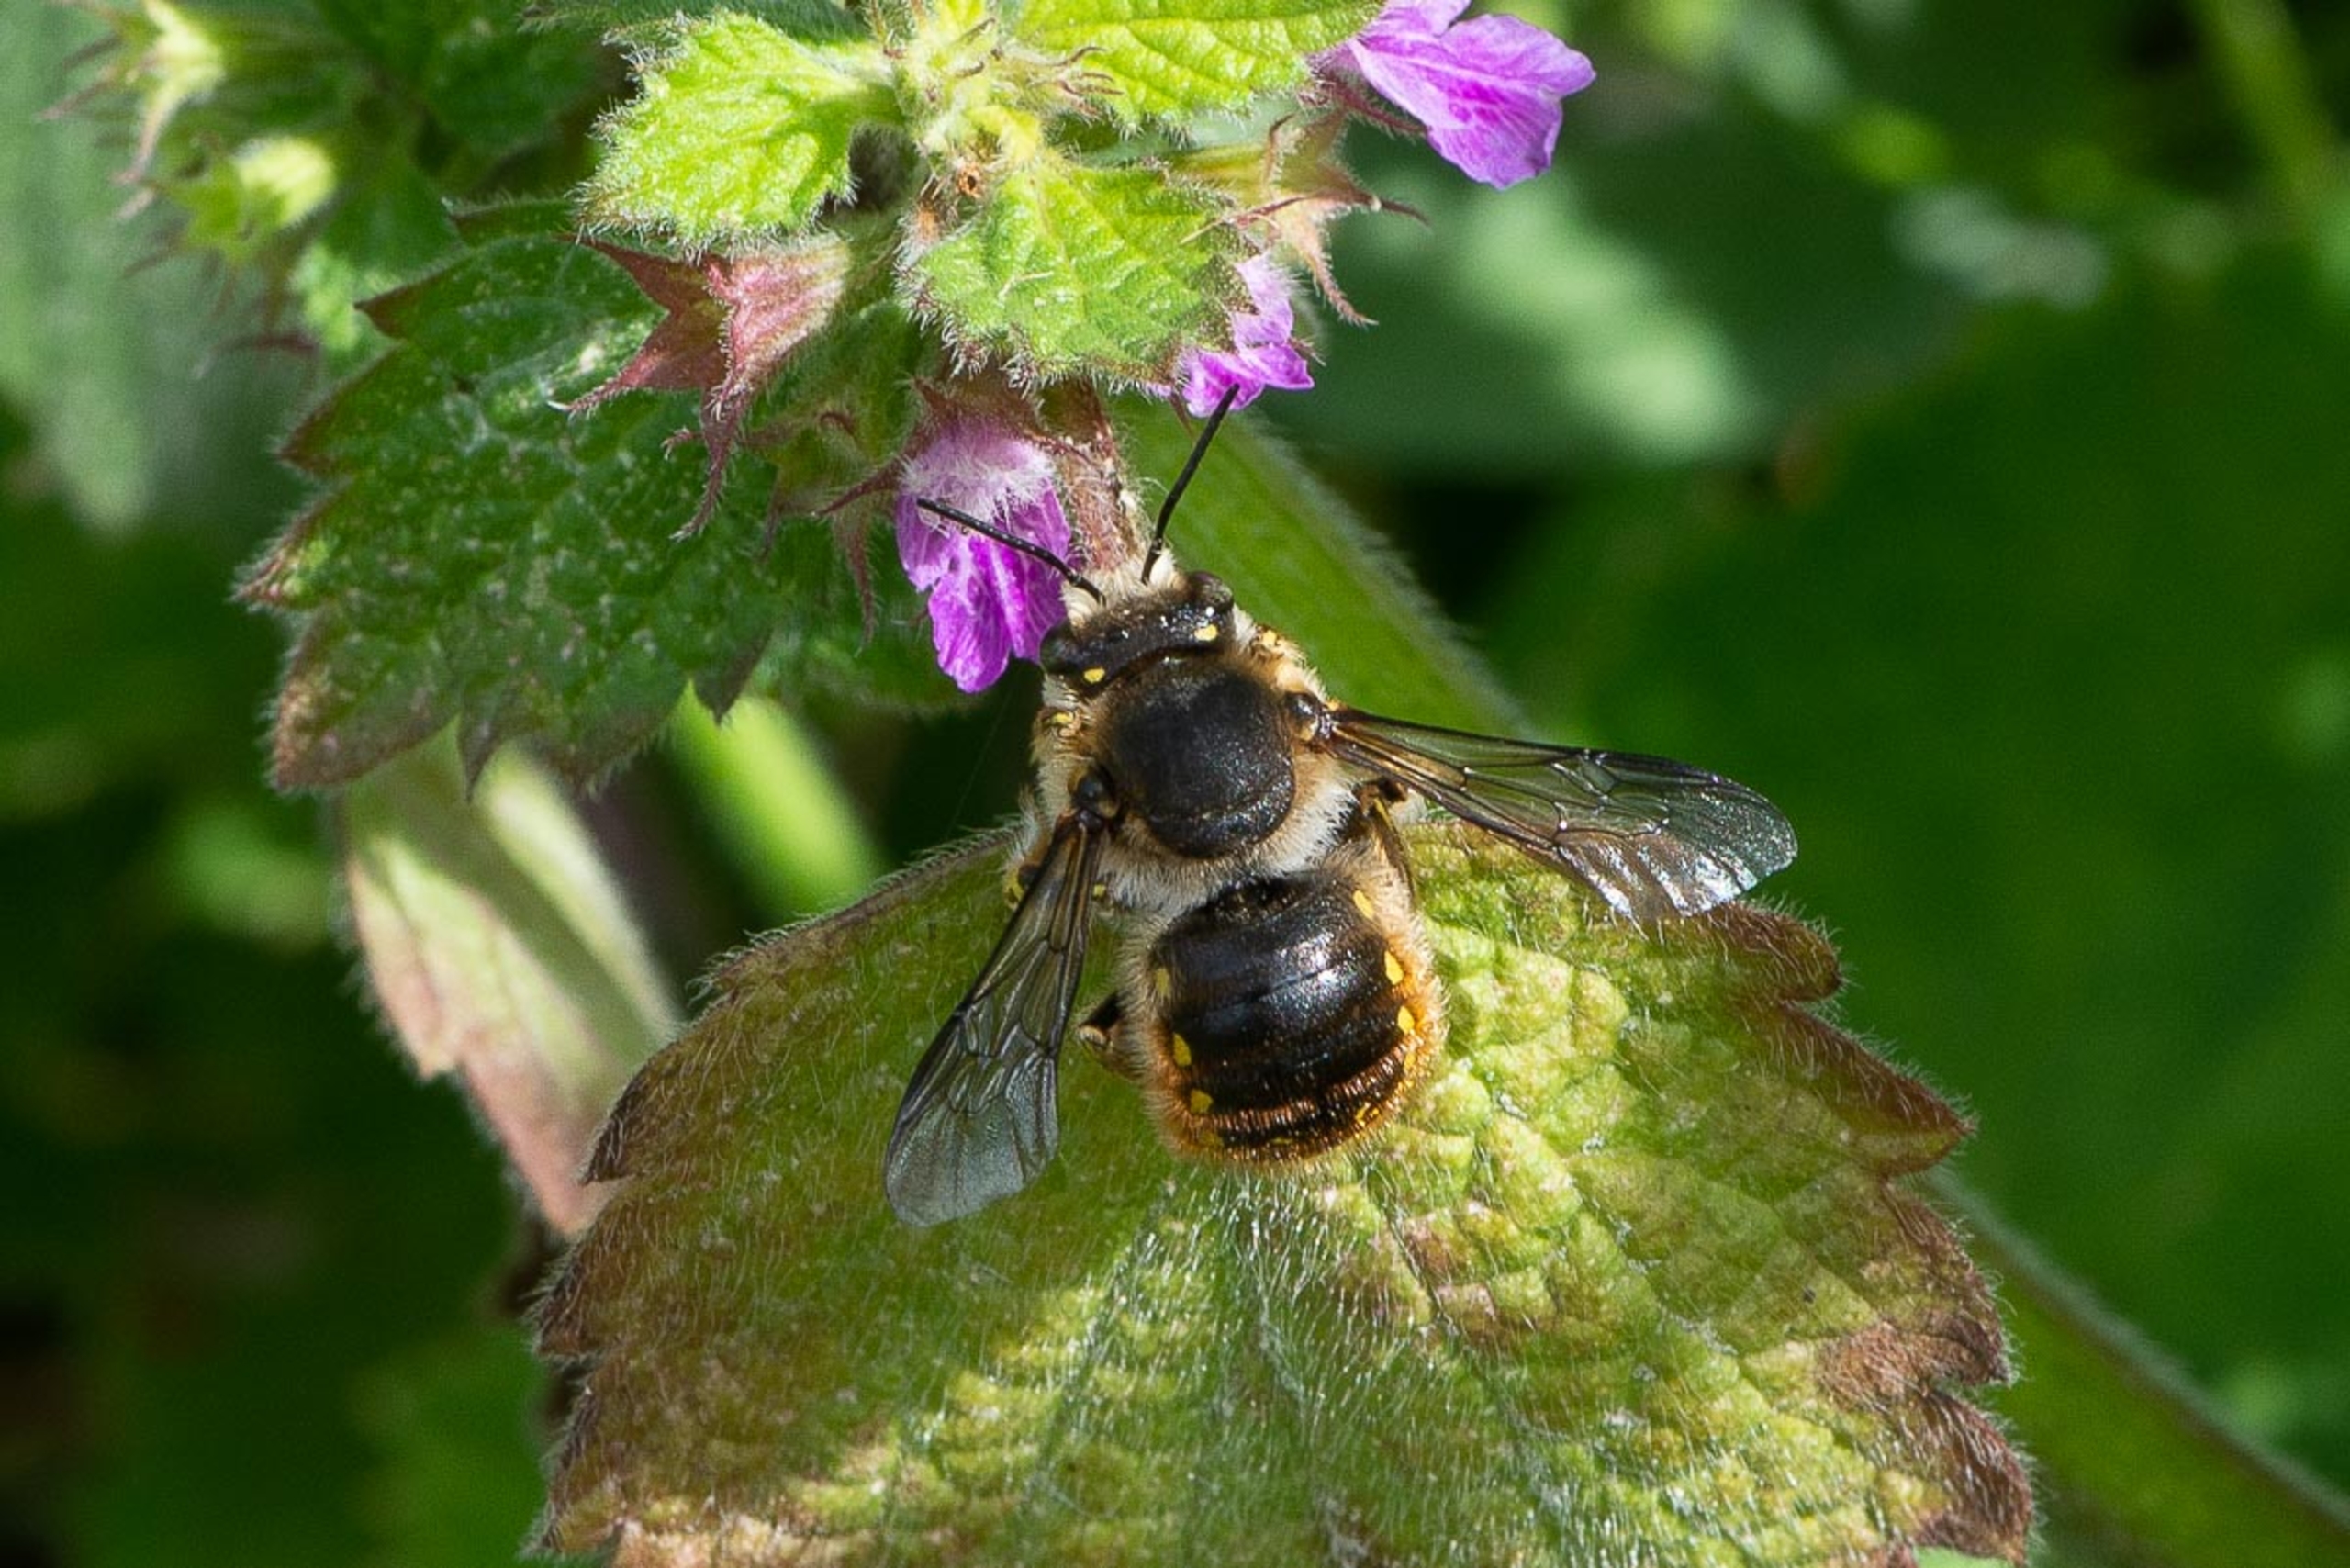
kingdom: Animalia
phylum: Arthropoda
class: Insecta
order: Hymenoptera
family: Megachilidae
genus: Anthidium
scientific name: Anthidium manicatum
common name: Stor uldbi
